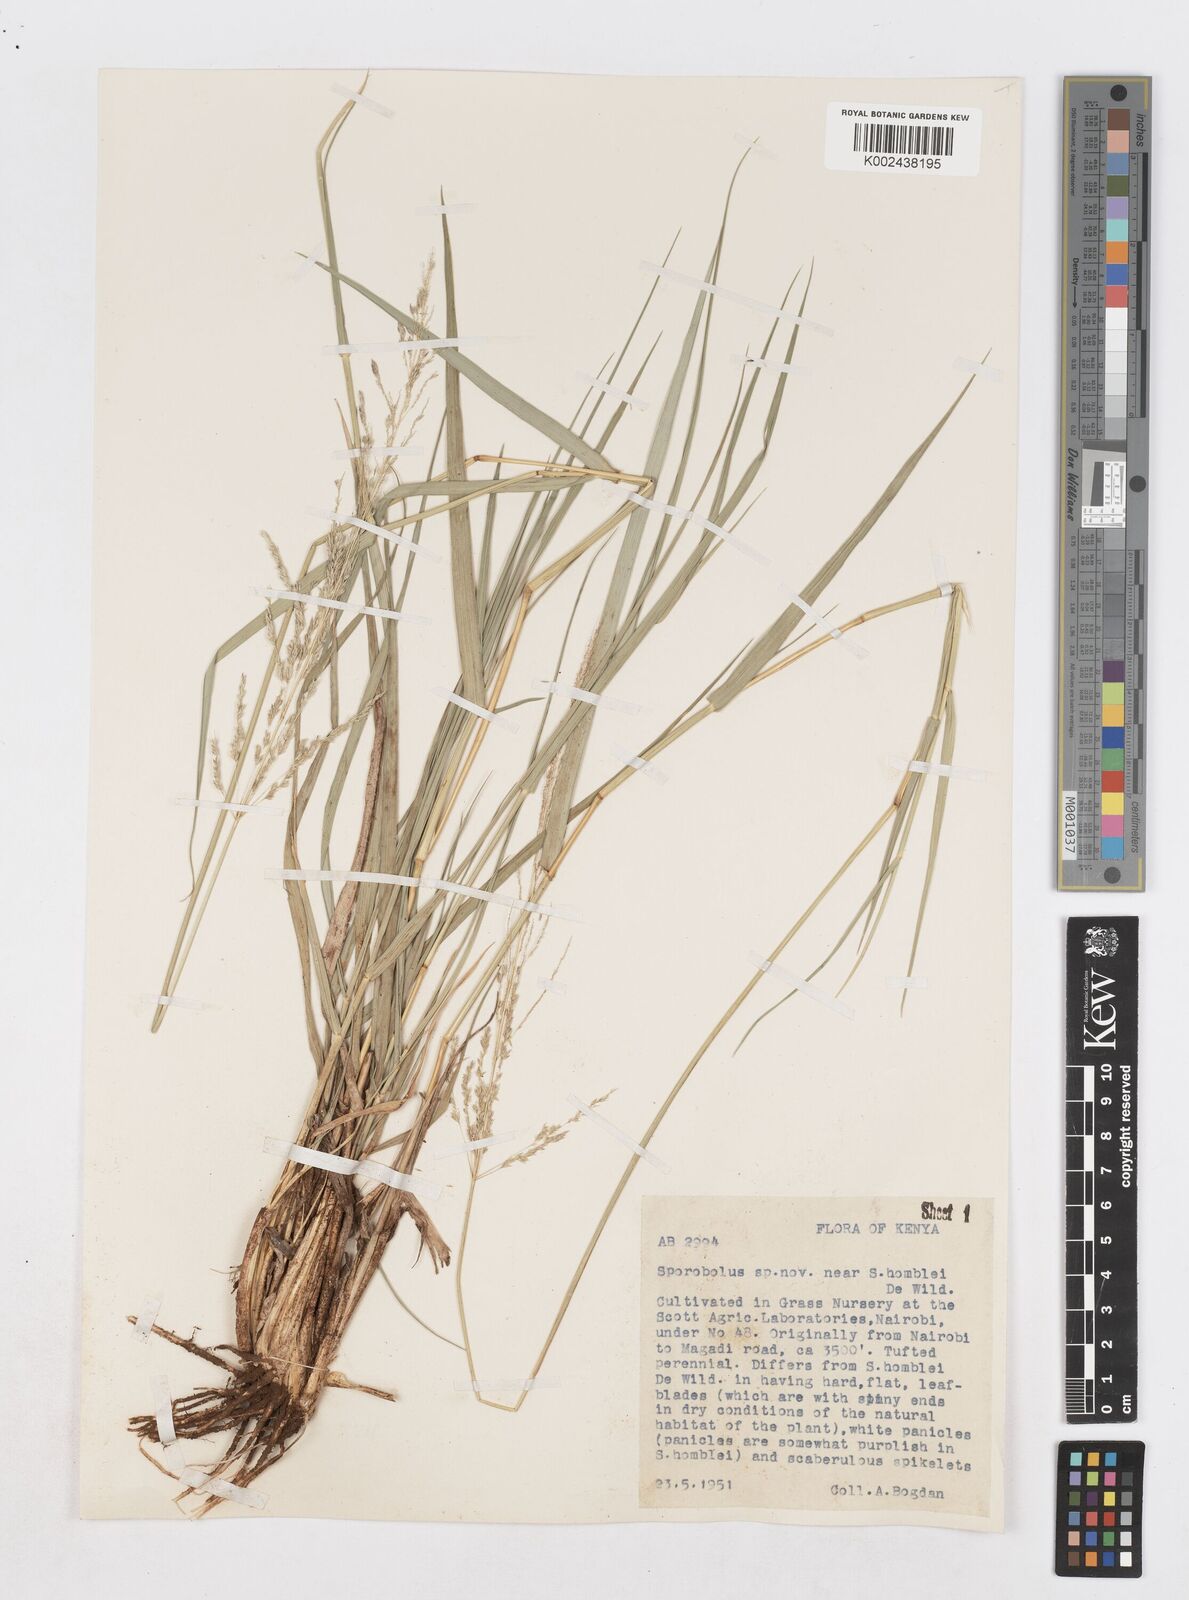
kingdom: Plantae
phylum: Tracheophyta
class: Liliopsida
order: Poales
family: Poaceae
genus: Sporobolus
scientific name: Sporobolus ioclados
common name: Pan dropseed
